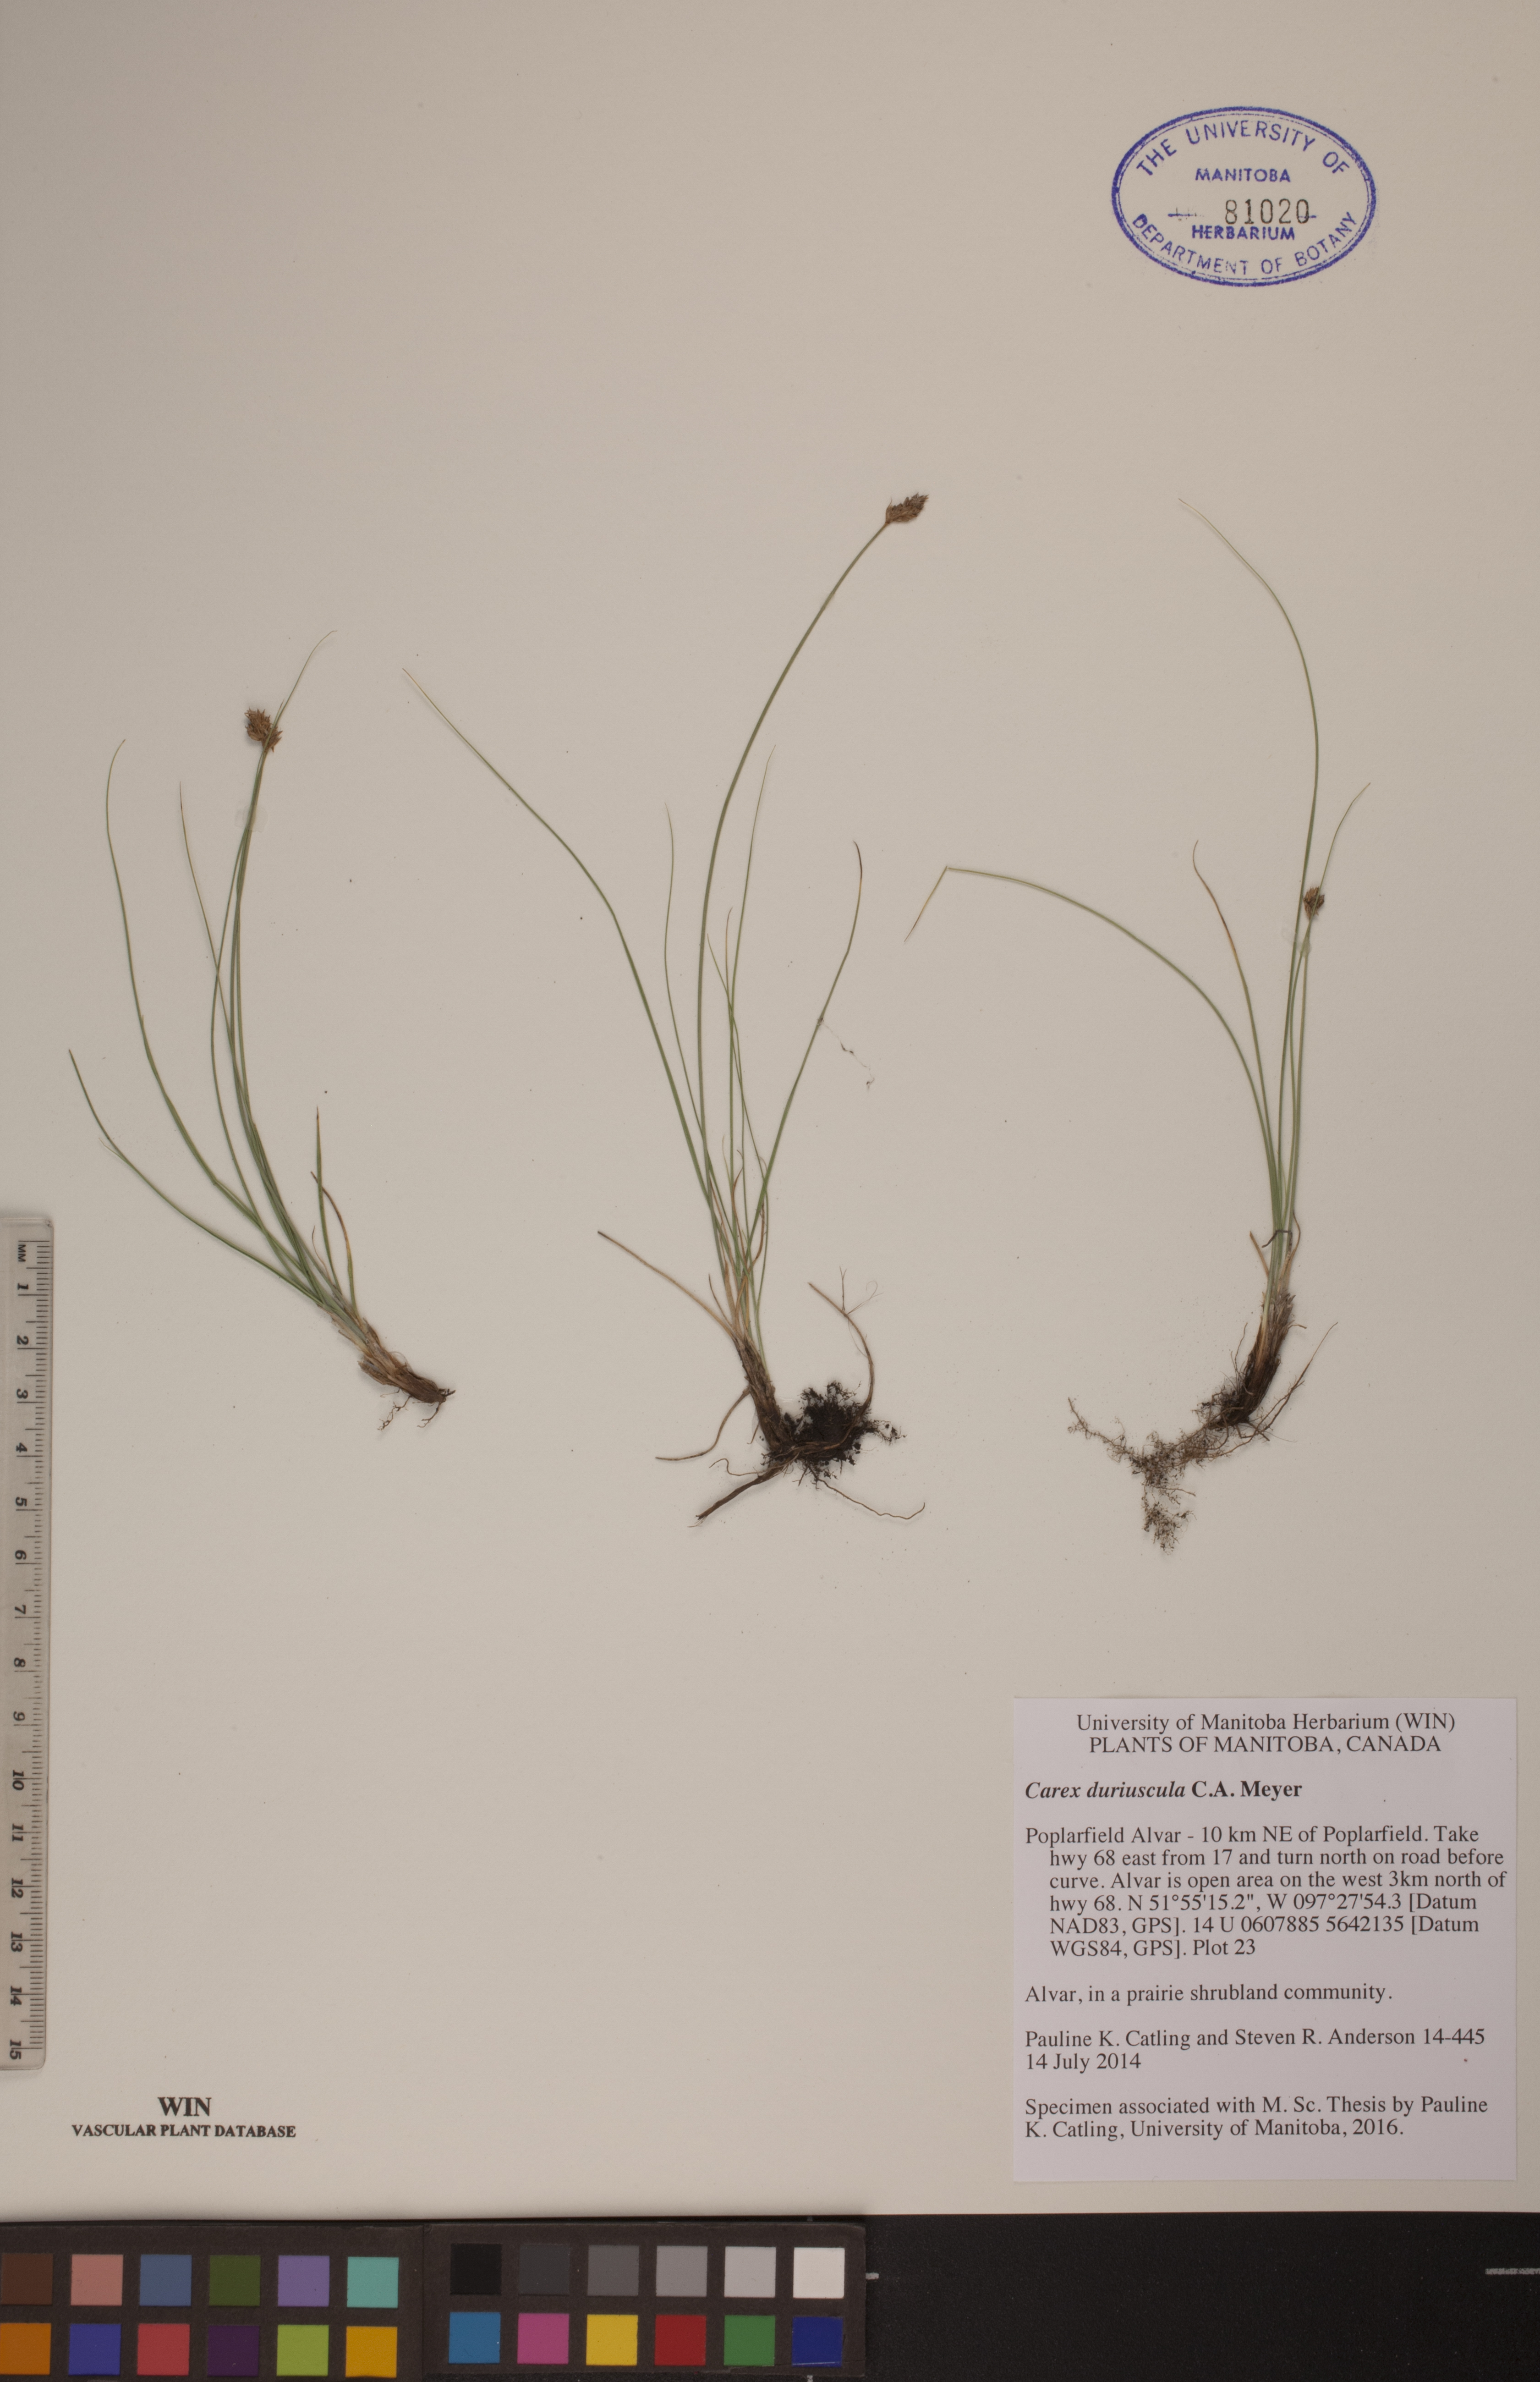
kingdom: Plantae
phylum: Tracheophyta
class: Liliopsida
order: Poales
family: Cyperaceae
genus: Carex
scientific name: Carex duriuscula
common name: Involute-leaved sedge
